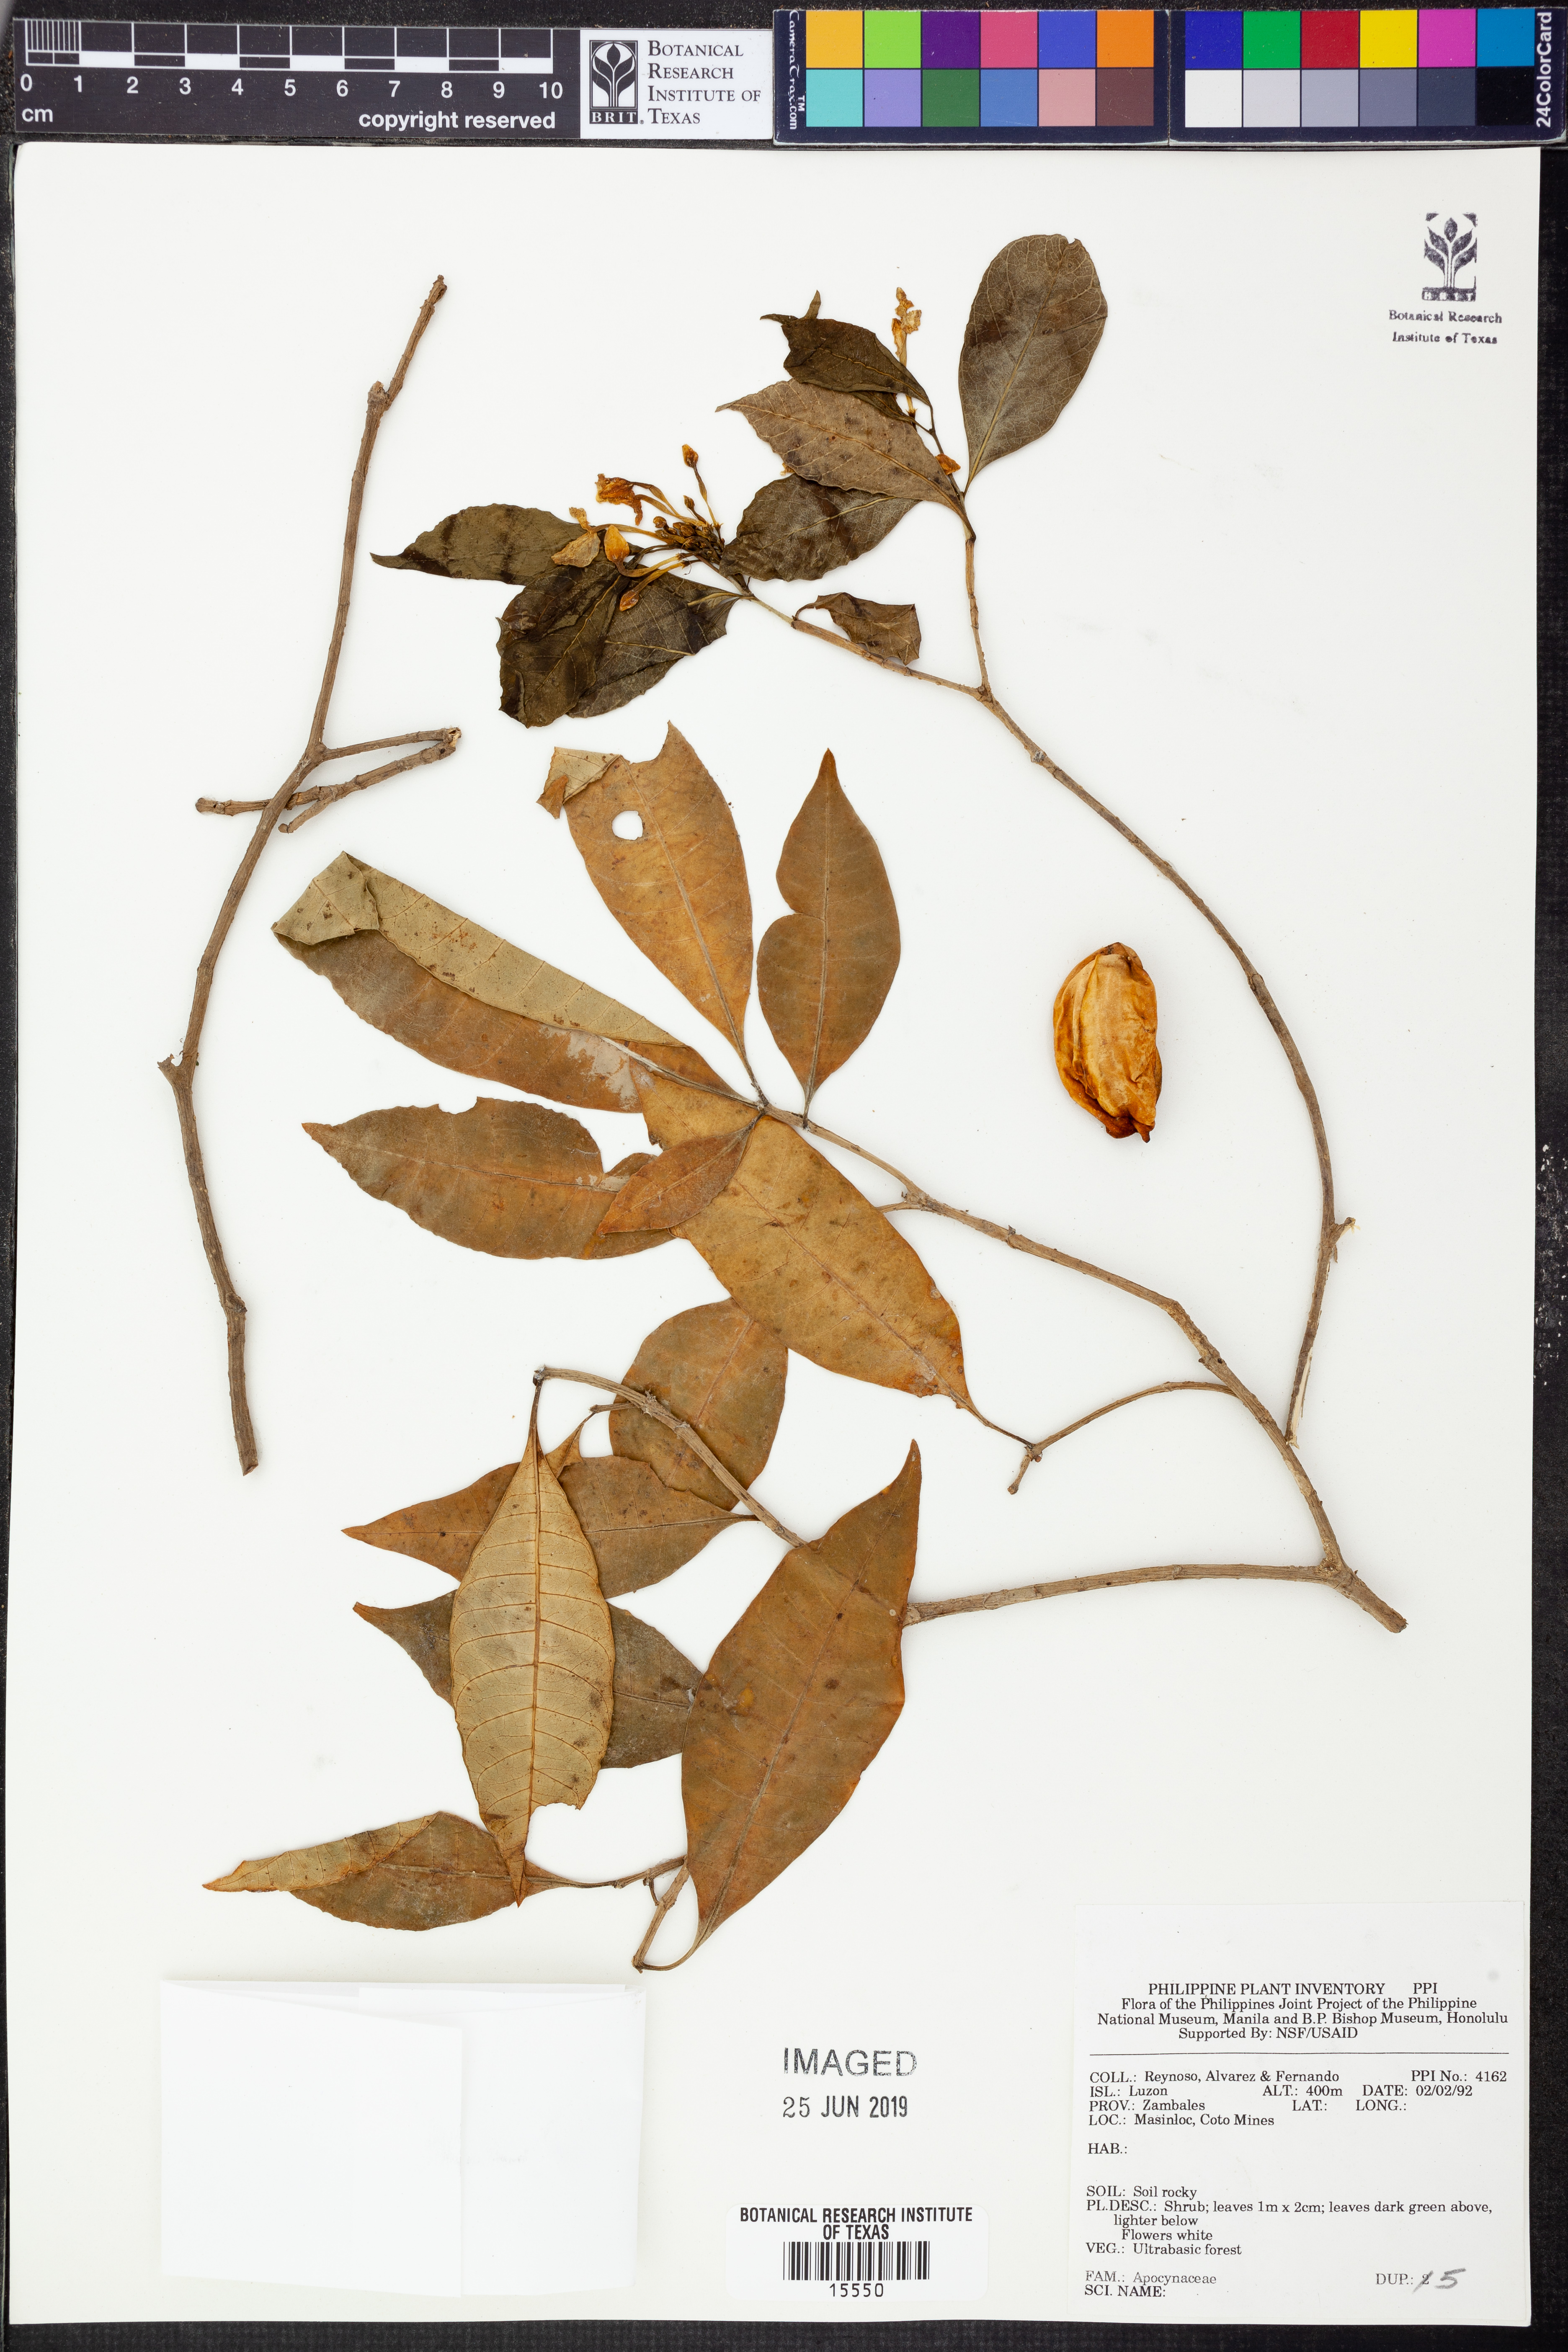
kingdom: Plantae
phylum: Tracheophyta
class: Magnoliopsida
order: Gentianales
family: Apocynaceae
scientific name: Apocynaceae
